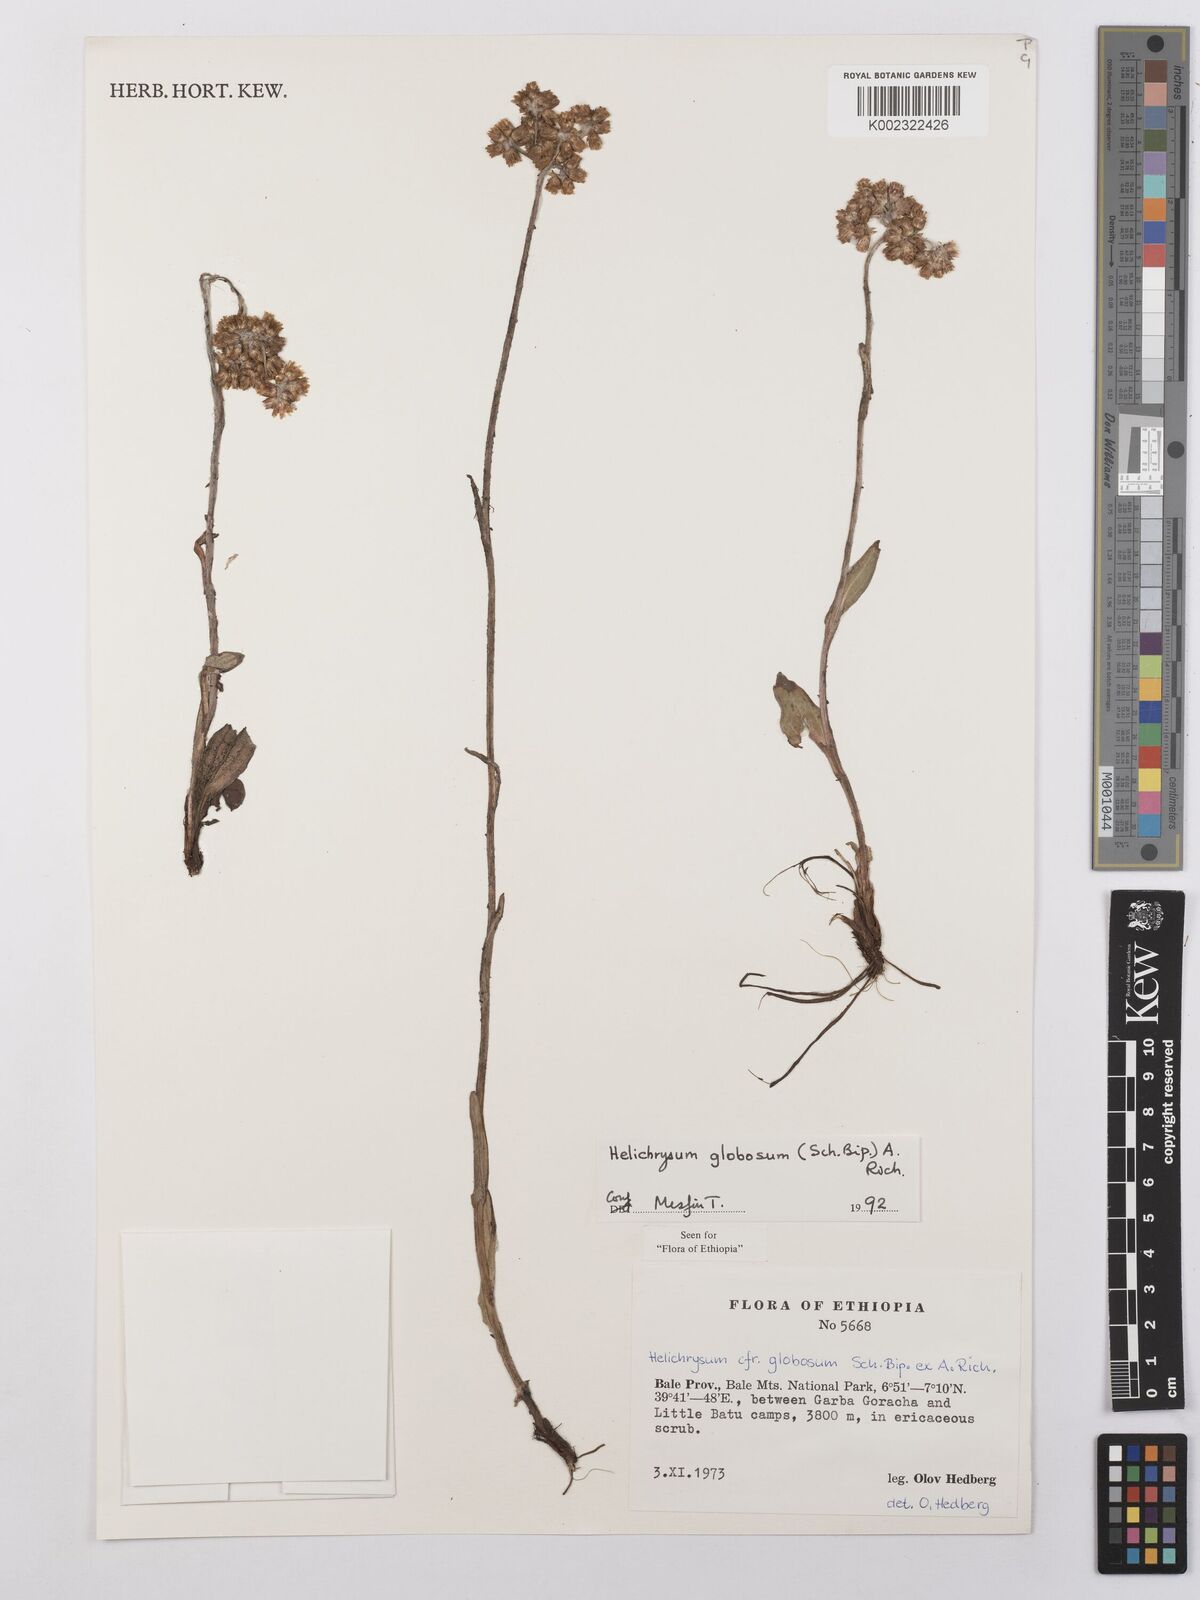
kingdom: Plantae
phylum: Tracheophyta
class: Magnoliopsida
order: Asterales
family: Asteraceae
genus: Helichrysum
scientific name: Helichrysum globosum
